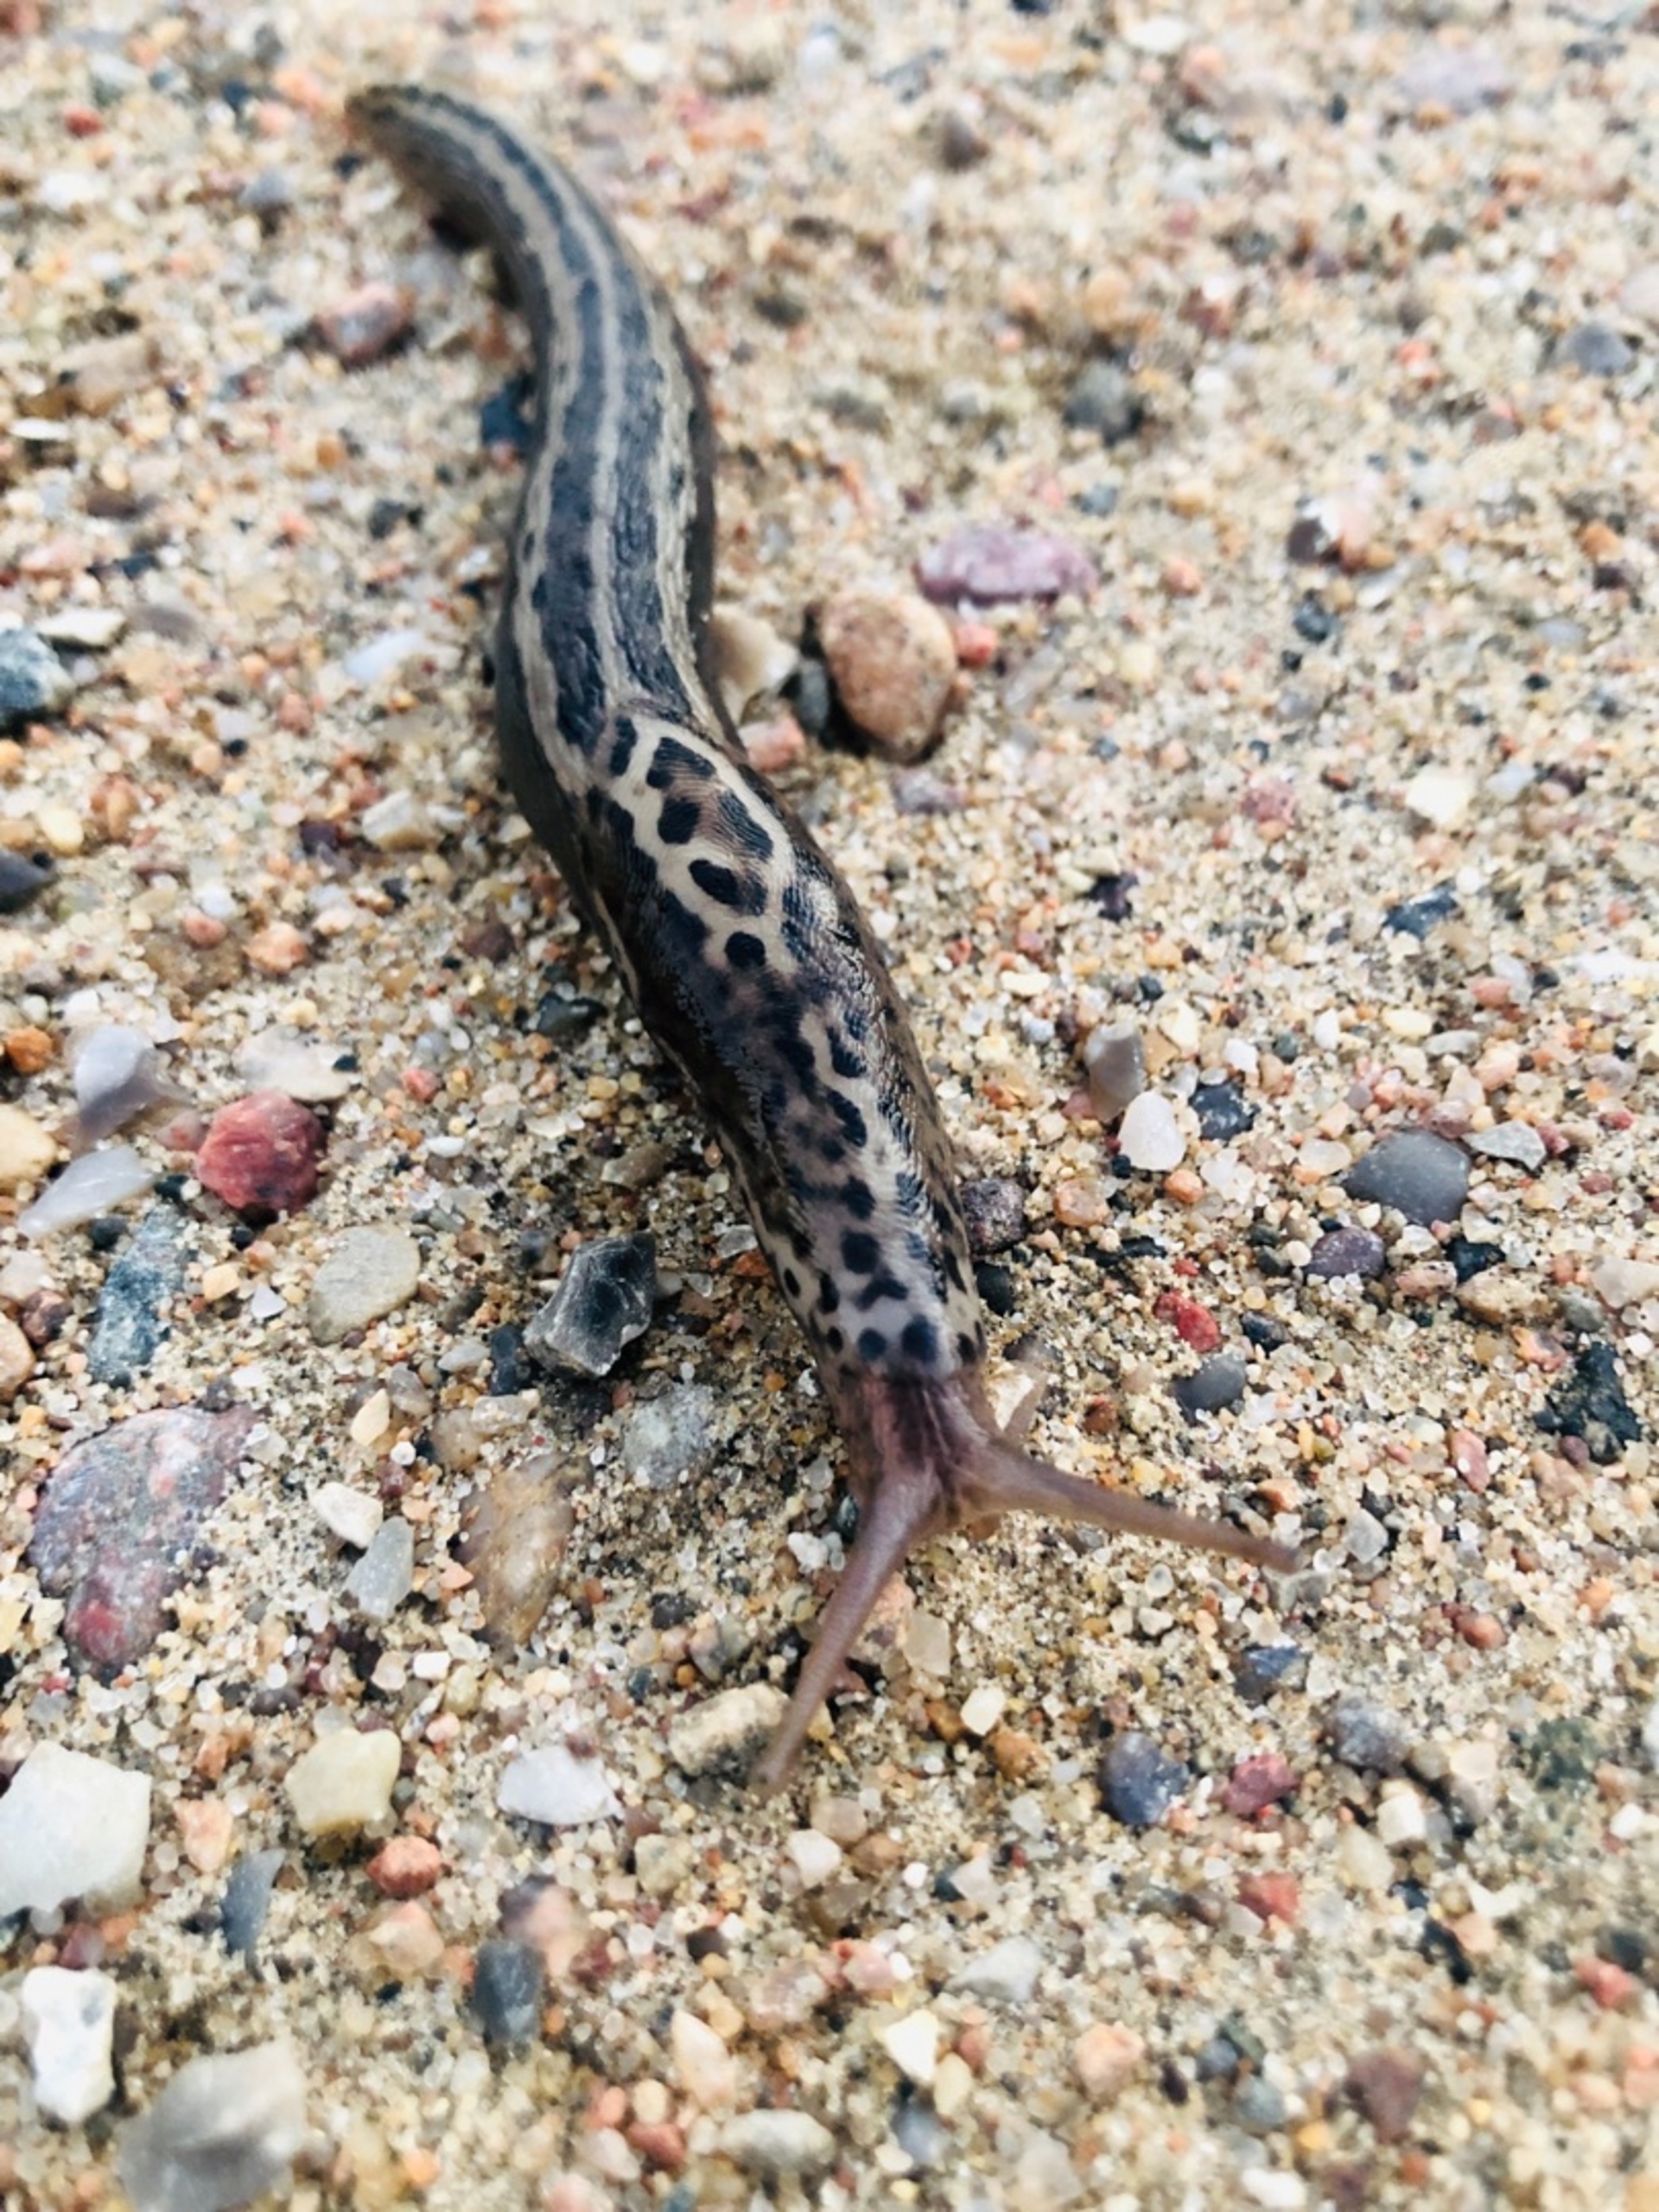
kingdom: Animalia
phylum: Mollusca
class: Gastropoda
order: Stylommatophora
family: Limacidae
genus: Limax
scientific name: Limax
